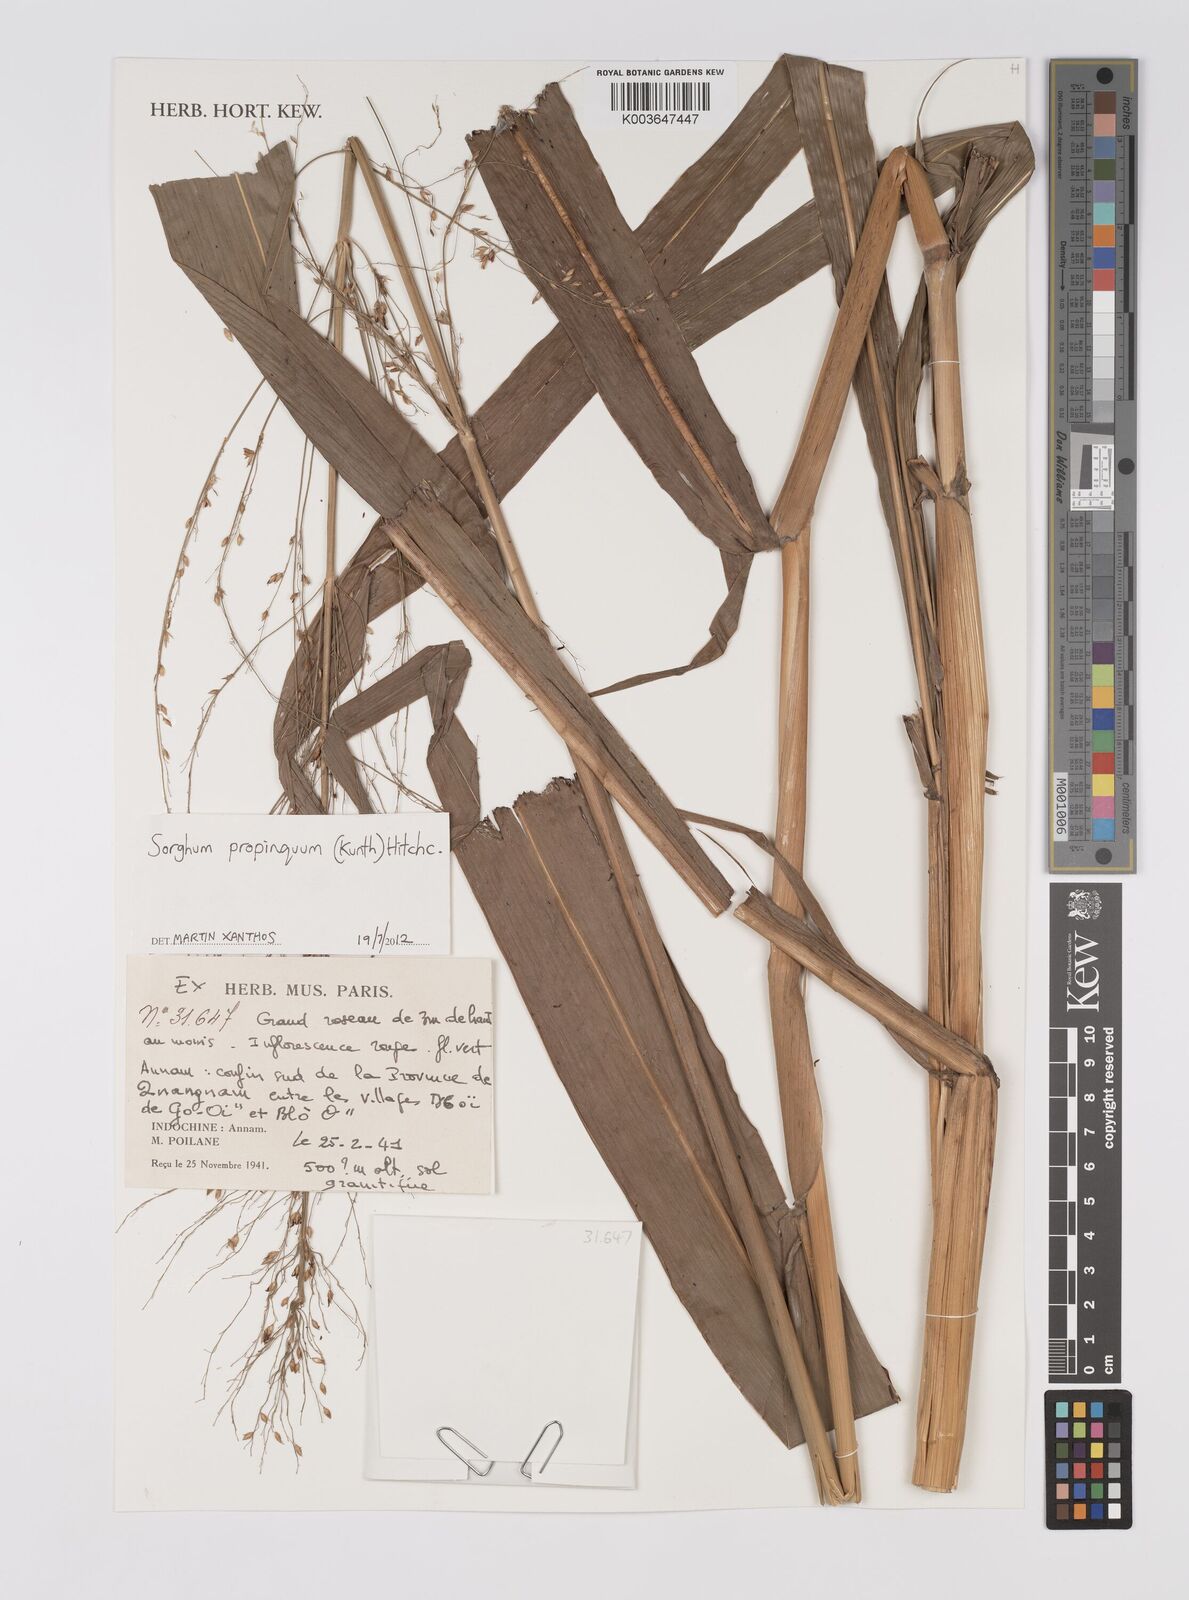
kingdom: Plantae
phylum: Tracheophyta
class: Liliopsida
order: Poales
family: Poaceae
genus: Sorghum
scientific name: Sorghum propinquum
